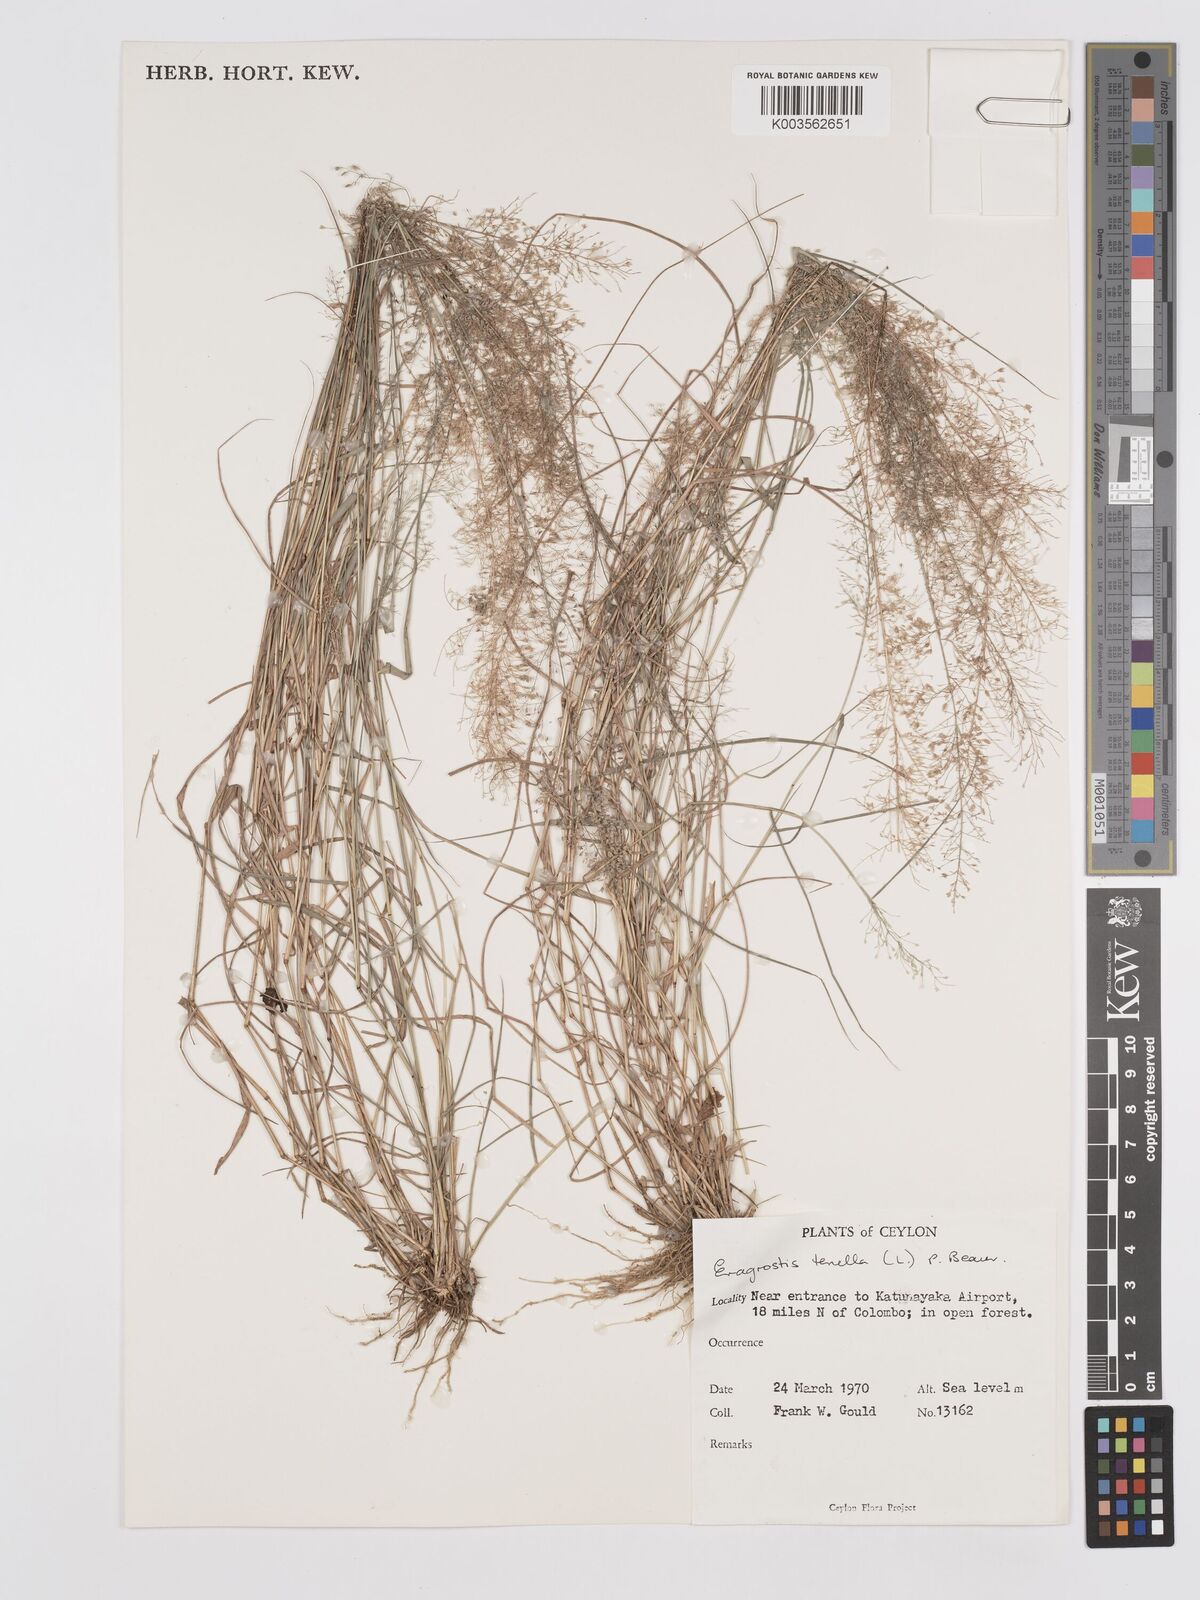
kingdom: Plantae
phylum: Tracheophyta
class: Liliopsida
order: Poales
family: Poaceae
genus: Eragrostis
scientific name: Eragrostis tenella
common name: Japanese lovegrass
